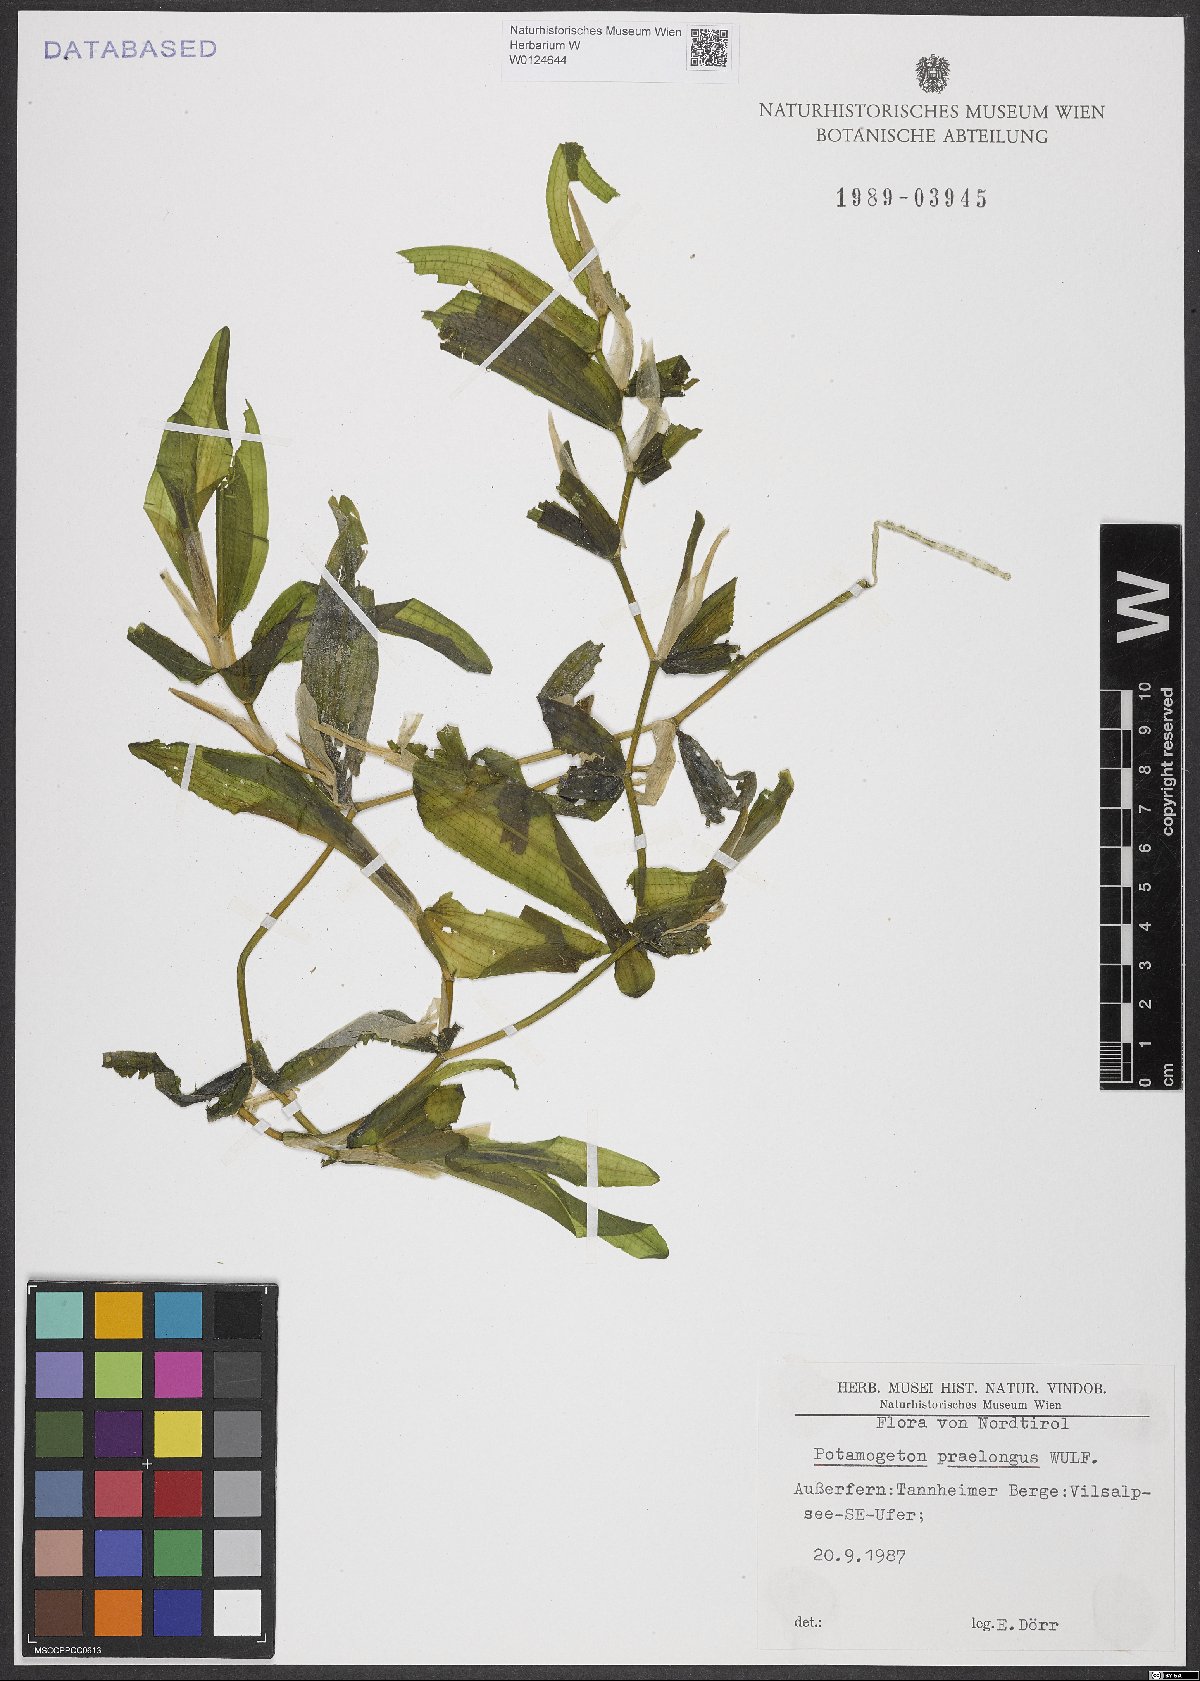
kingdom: Plantae
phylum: Tracheophyta
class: Liliopsida
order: Alismatales
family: Potamogetonaceae
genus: Potamogeton
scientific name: Potamogeton praelongus
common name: Long-stalked pondweed
